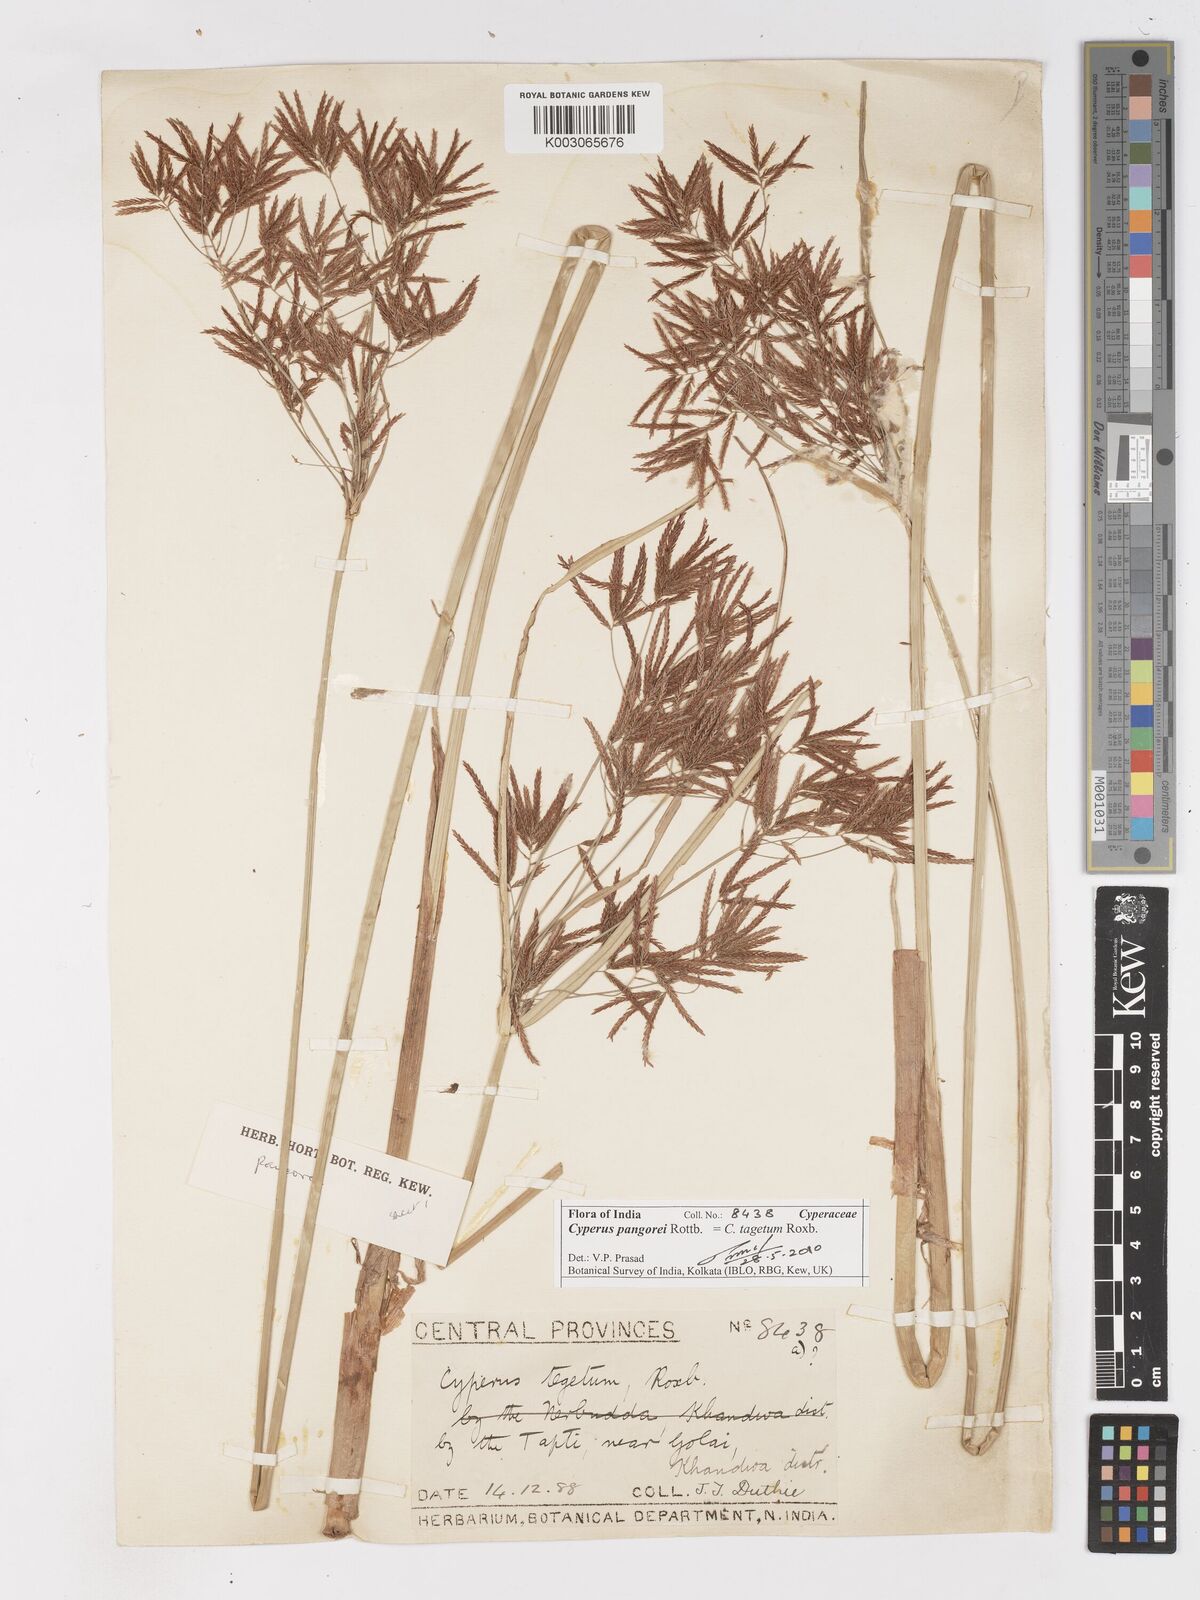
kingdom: Plantae
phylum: Tracheophyta
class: Liliopsida
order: Poales
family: Cyperaceae
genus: Cyperus
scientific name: Cyperus pangorei
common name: Mat sedge
